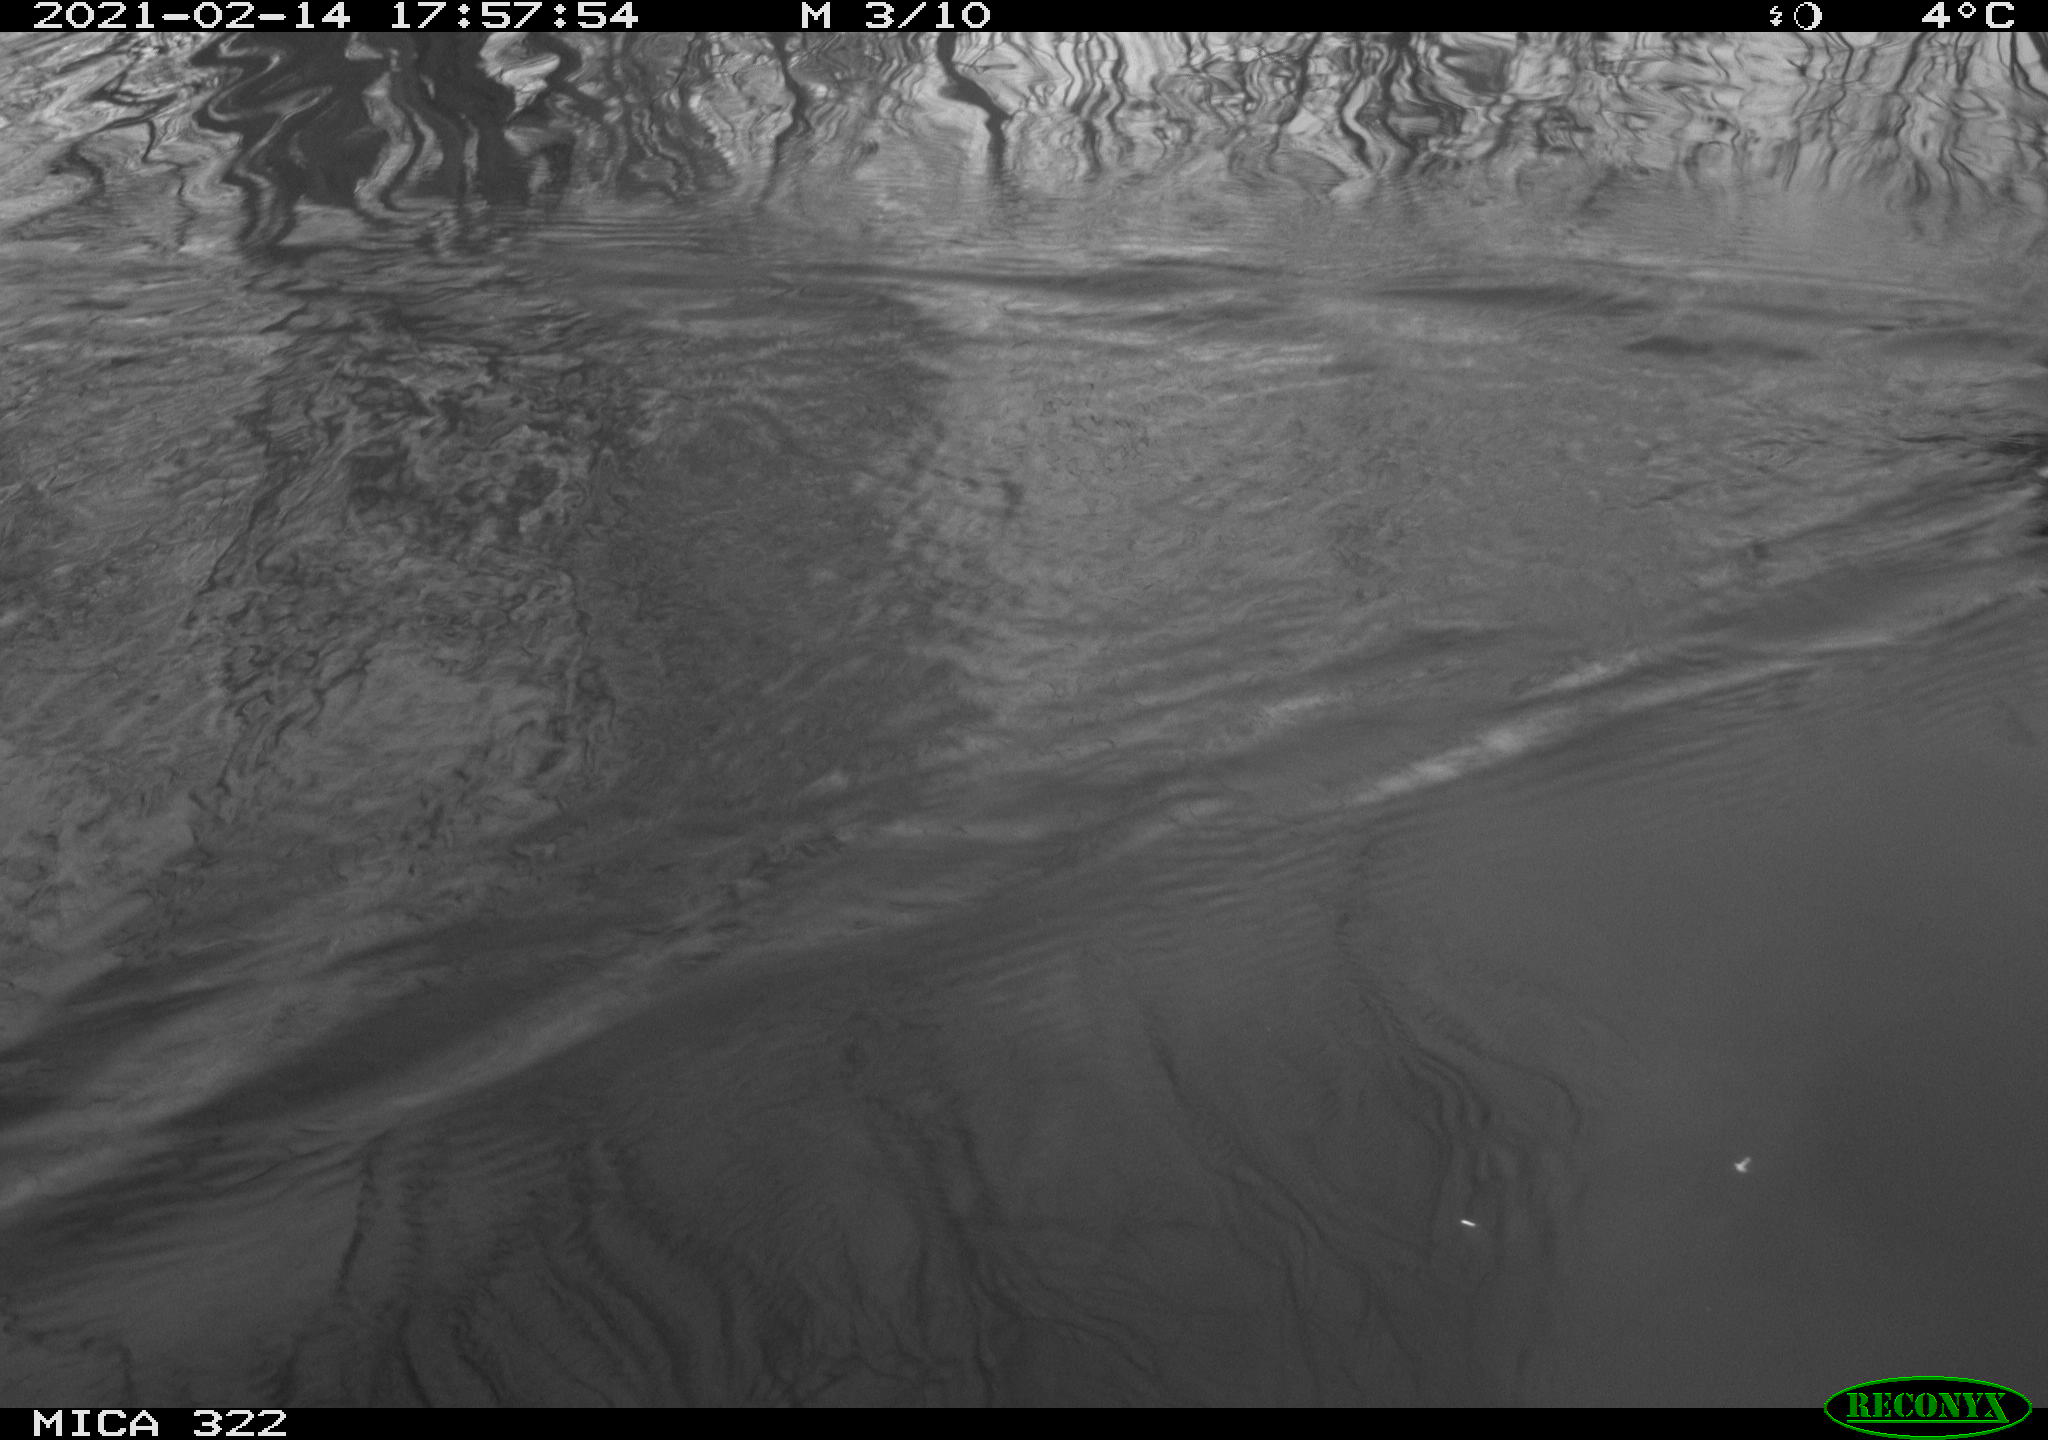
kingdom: Animalia
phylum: Chordata
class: Aves
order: Gruiformes
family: Rallidae
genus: Fulica
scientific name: Fulica atra
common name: Eurasian coot
